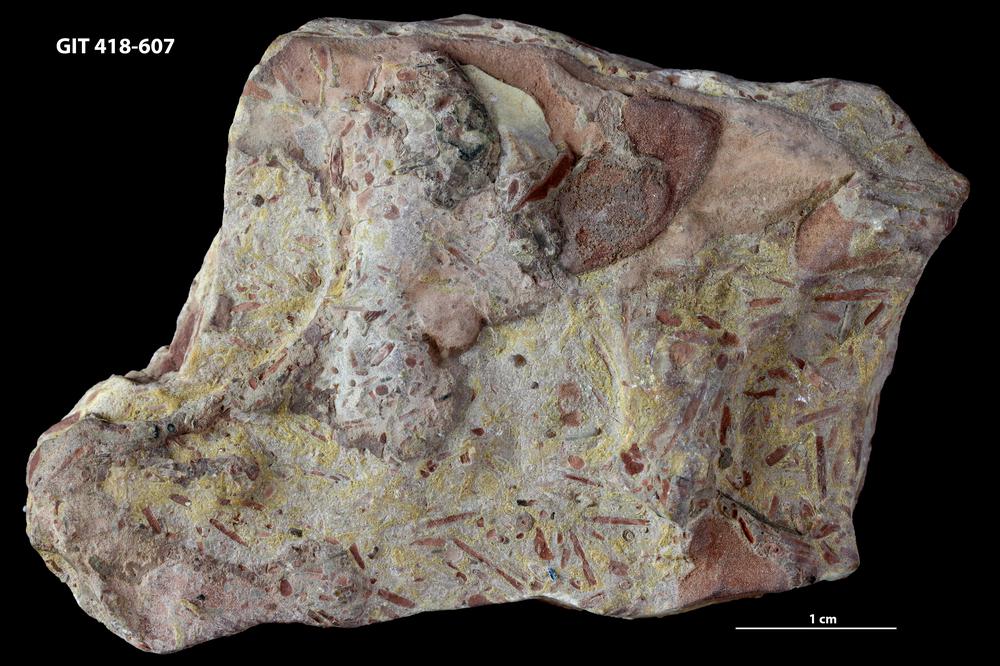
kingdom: Animalia
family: Hyolithidae
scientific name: Hyolithidae
